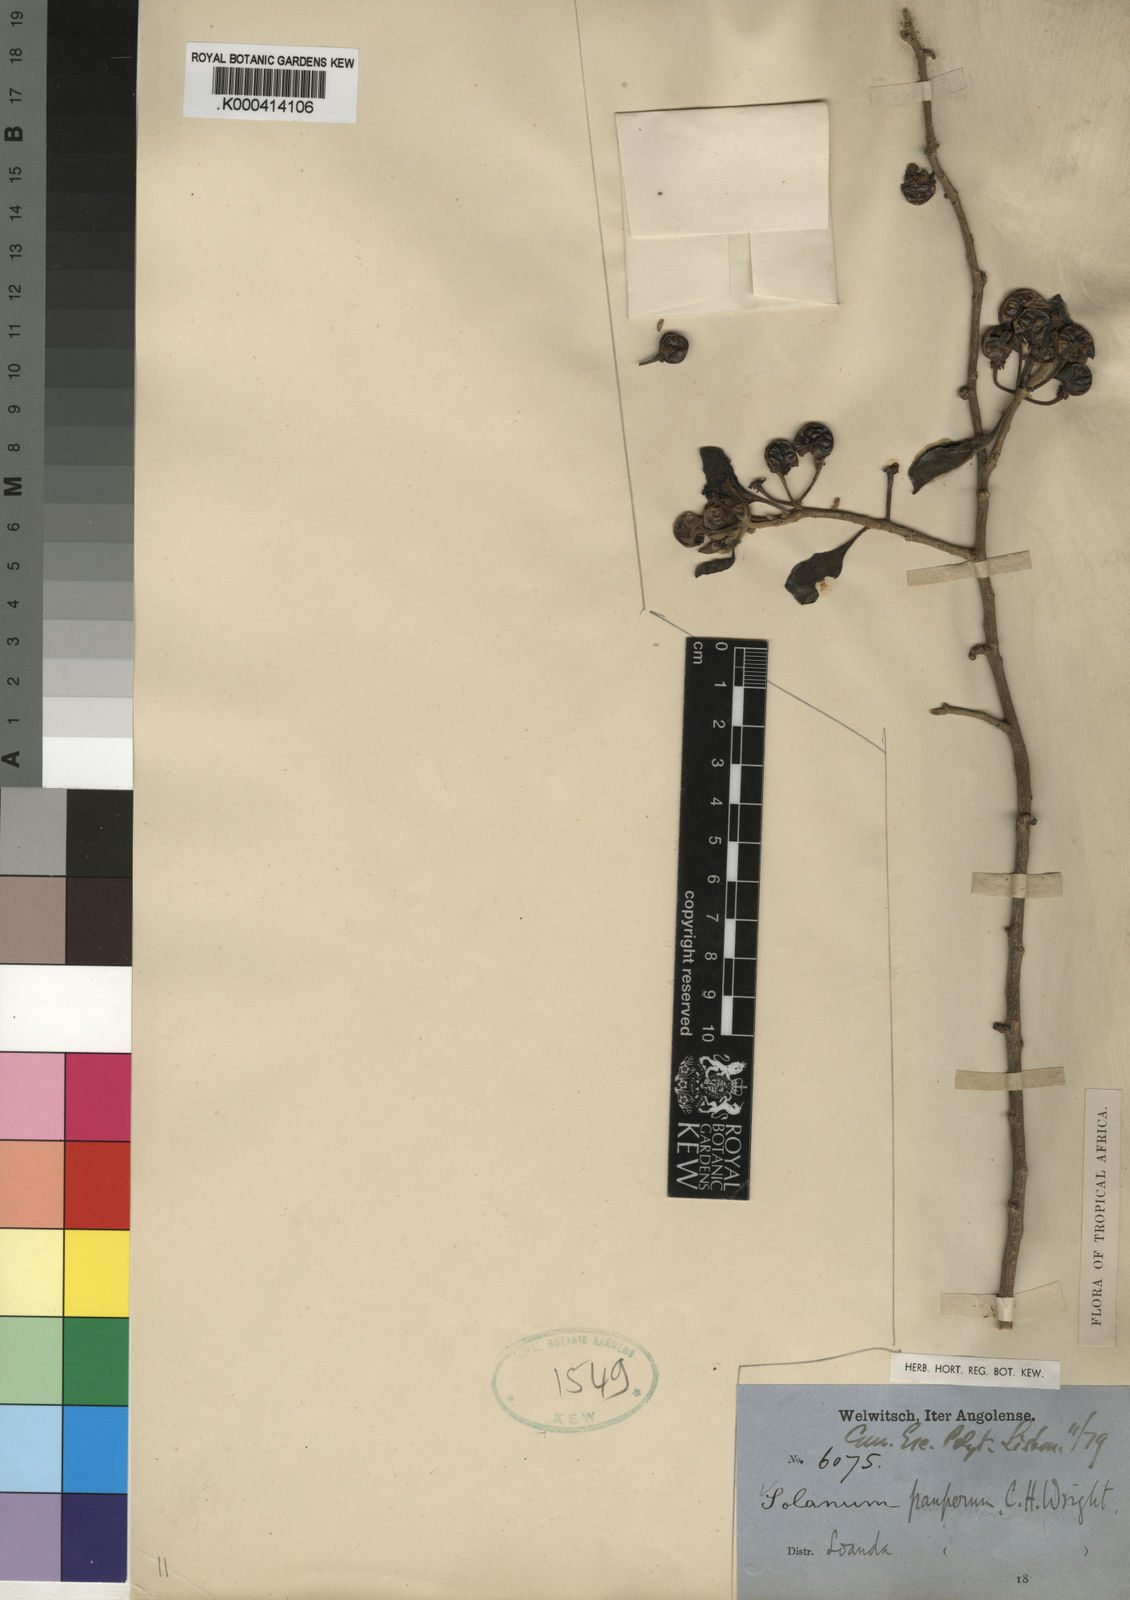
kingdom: Plantae
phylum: Tracheophyta
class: Magnoliopsida
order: Solanales
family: Solanaceae
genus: Solanum
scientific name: Solanum anomalum
